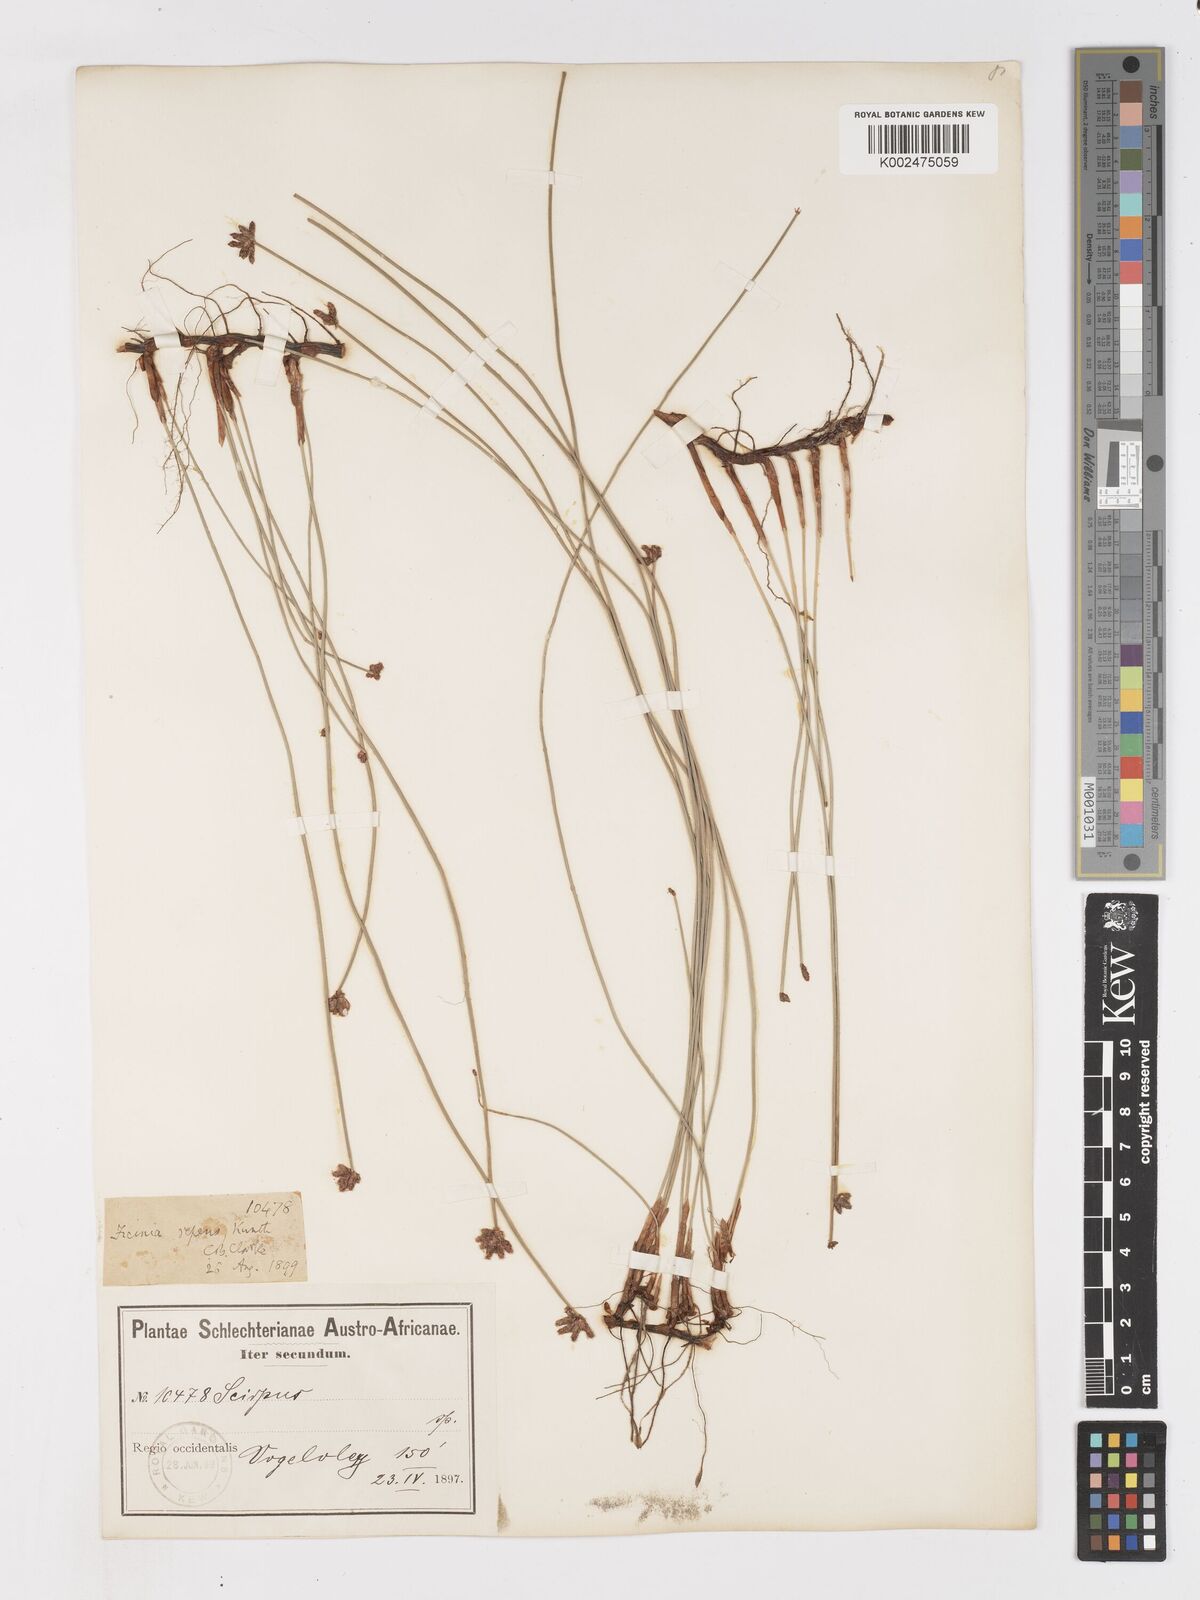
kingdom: Plantae
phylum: Tracheophyta
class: Liliopsida
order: Poales
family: Cyperaceae
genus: Ficinia
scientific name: Ficinia repens
